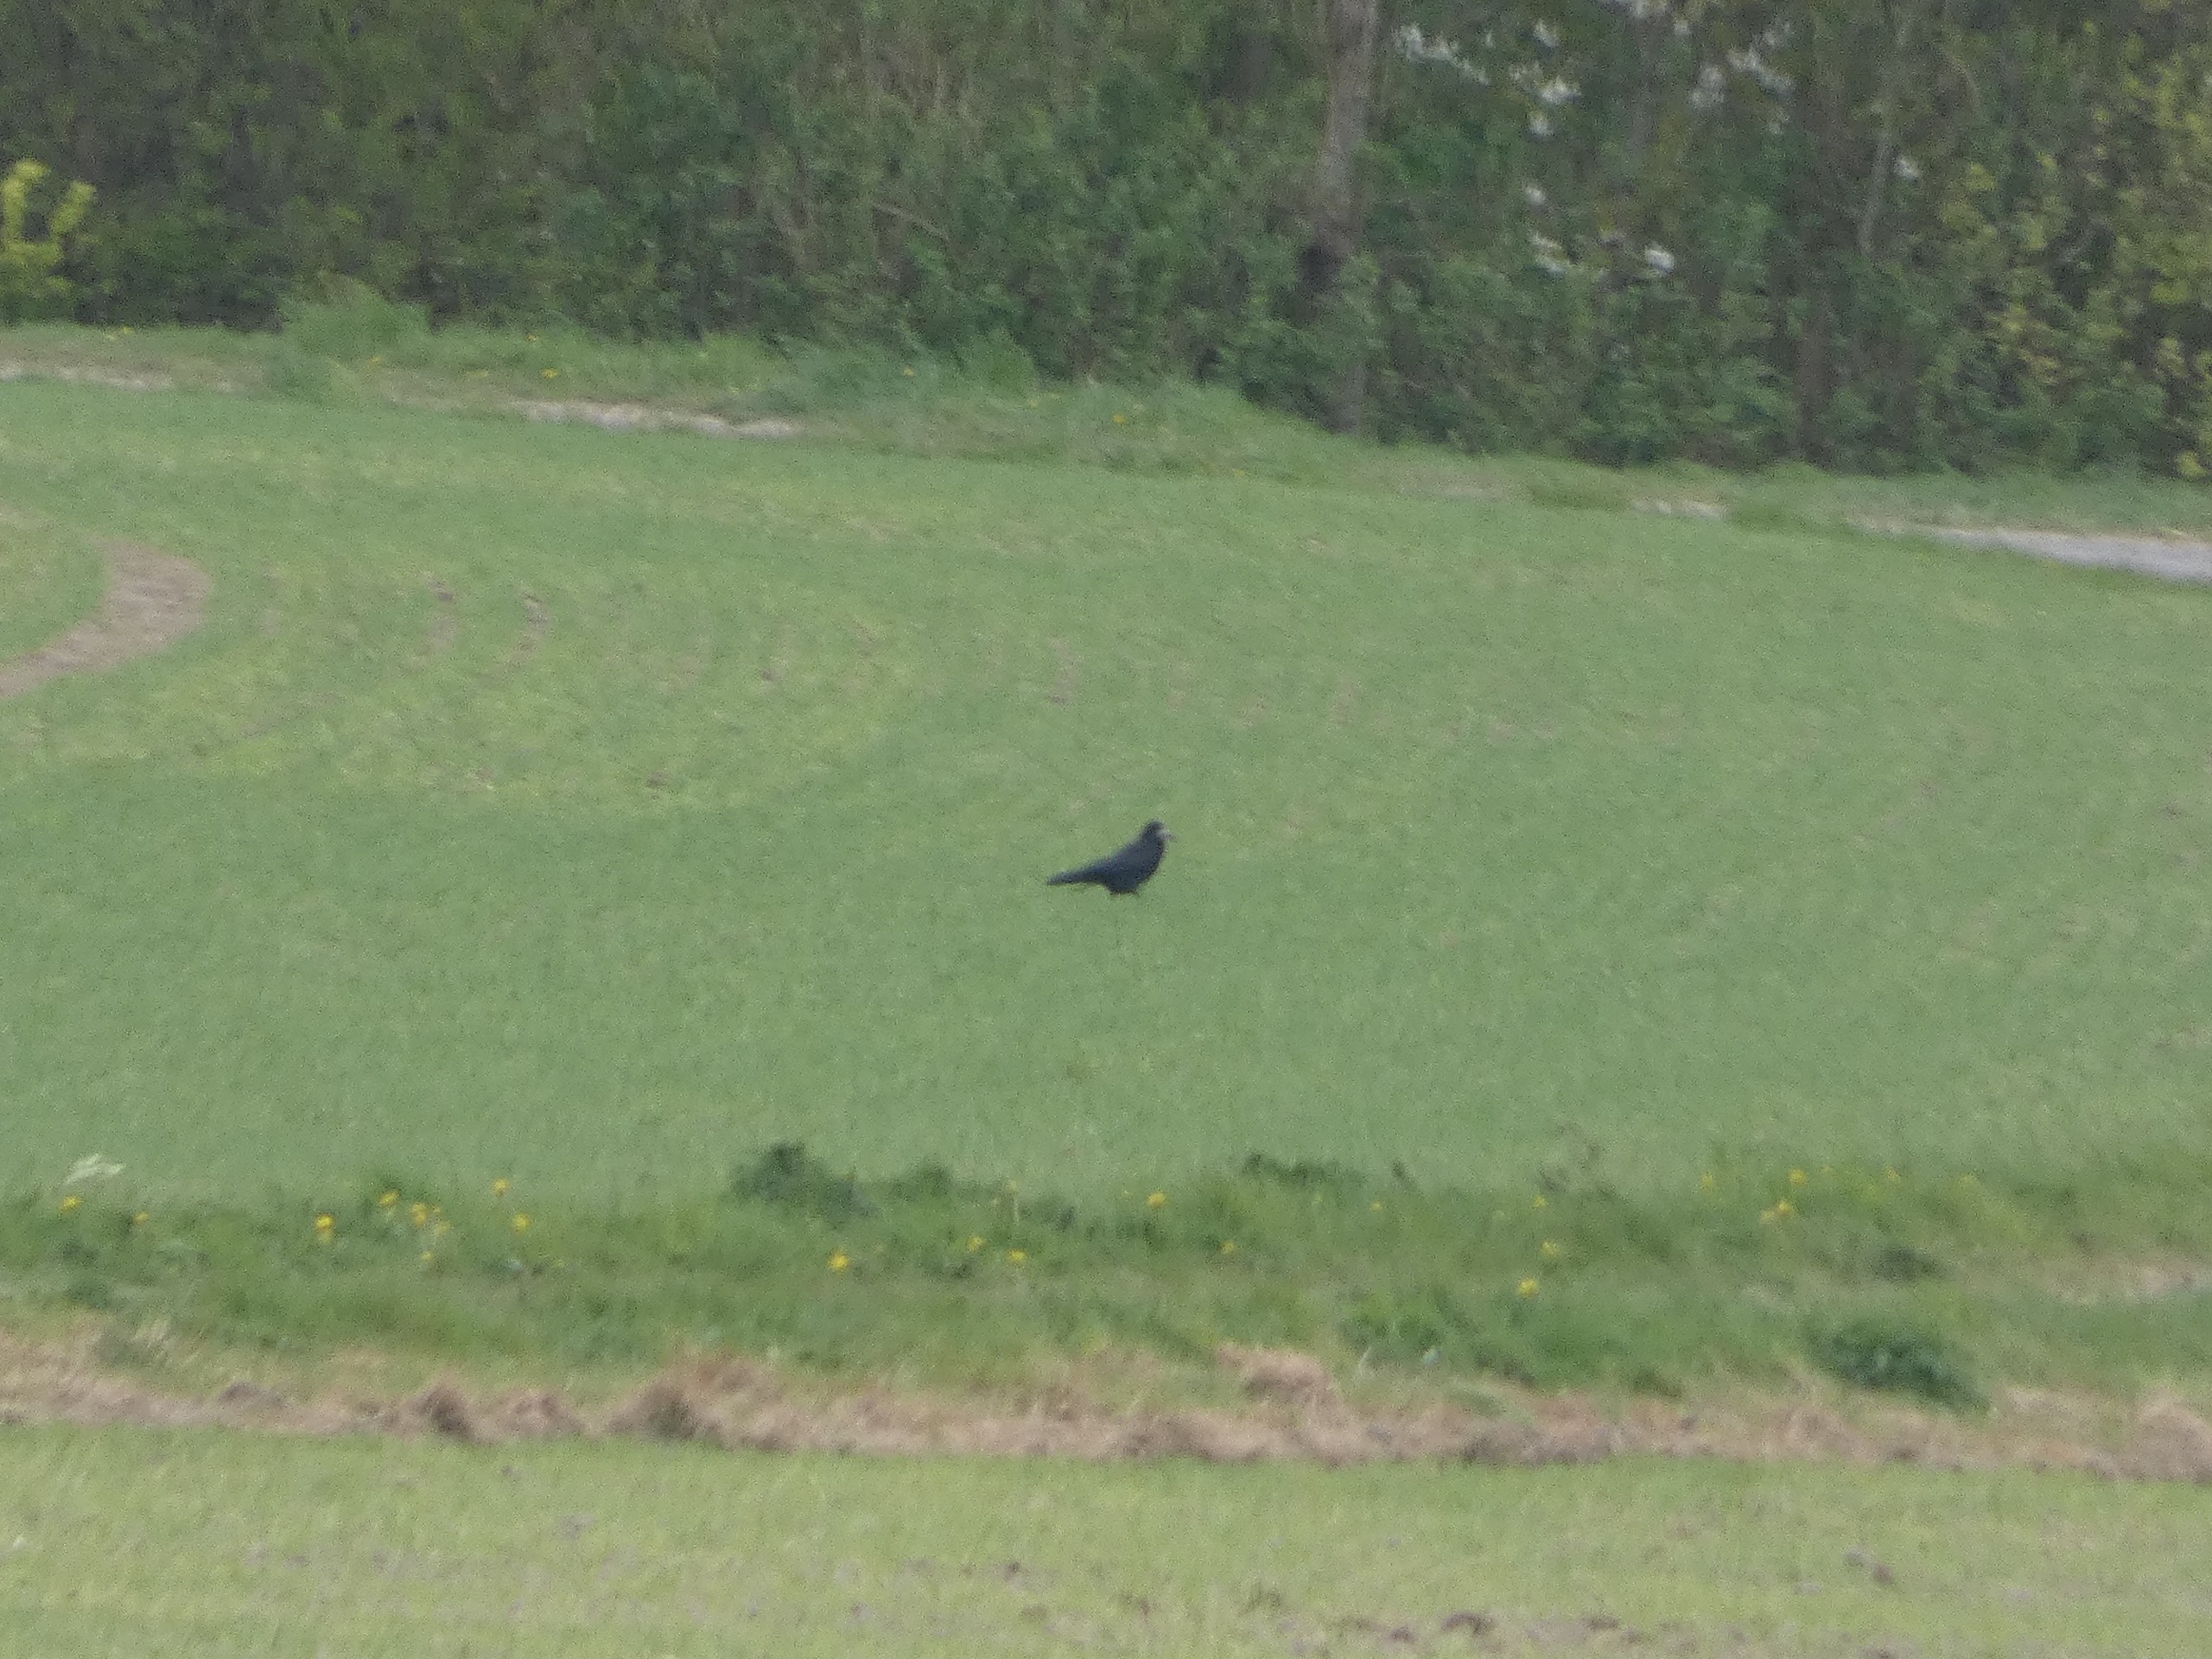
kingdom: Animalia
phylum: Chordata
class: Aves
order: Passeriformes
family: Corvidae
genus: Corvus
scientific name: Corvus frugilegus
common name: Råge
